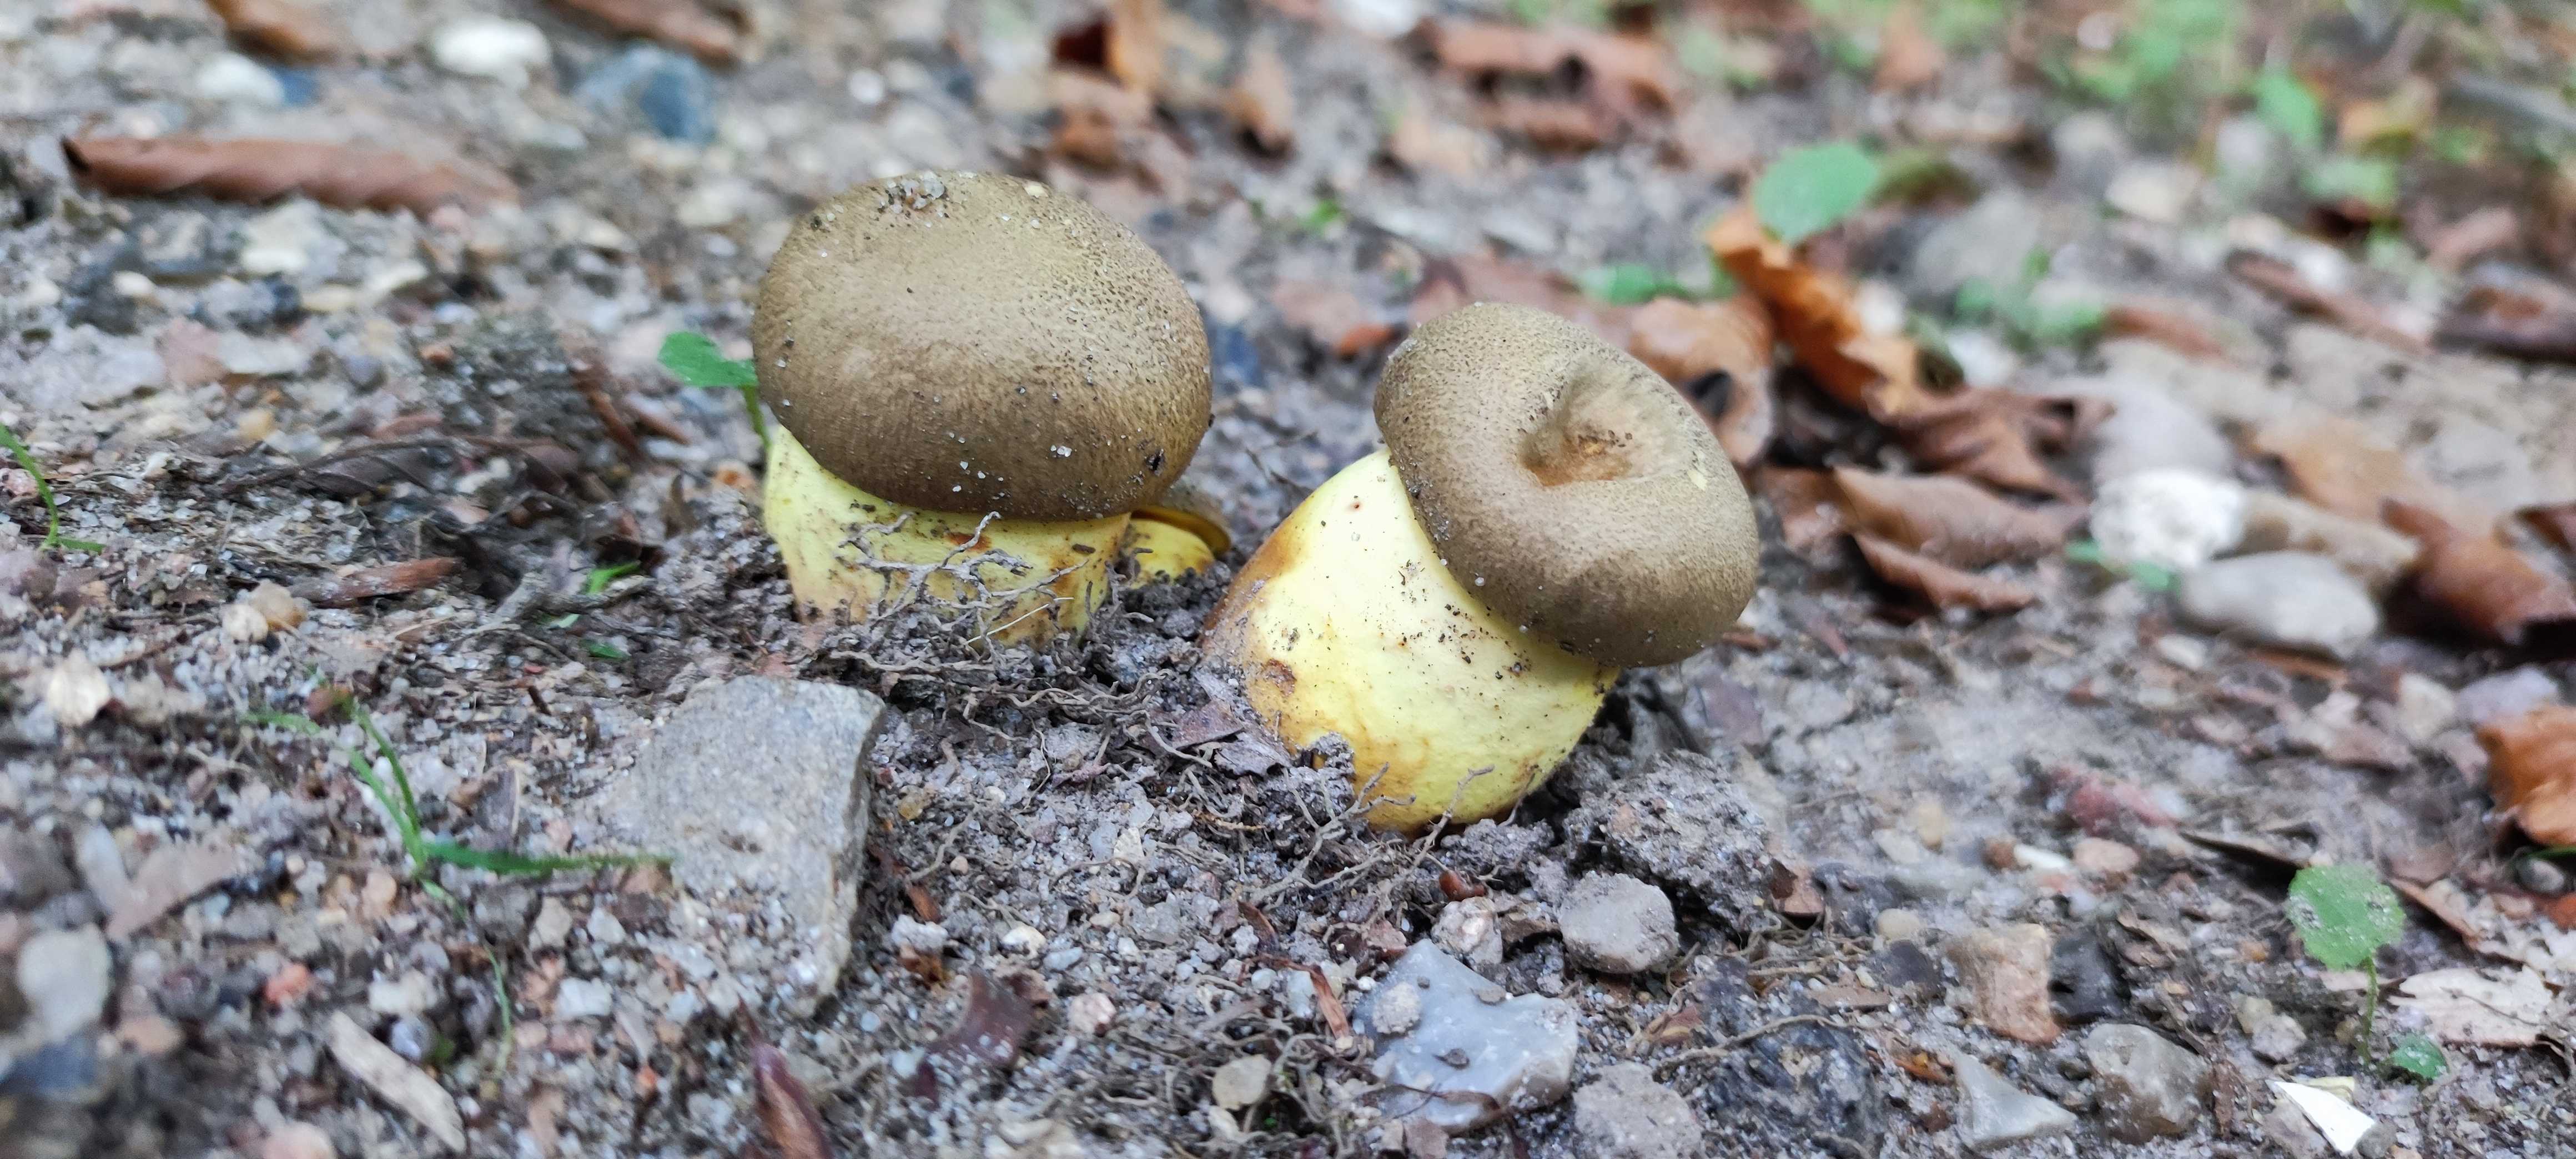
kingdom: Fungi
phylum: Basidiomycota
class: Agaricomycetes
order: Boletales
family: Boletaceae
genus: Butyriboletus
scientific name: Butyriboletus appendiculatus
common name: tenstokket rørhat
